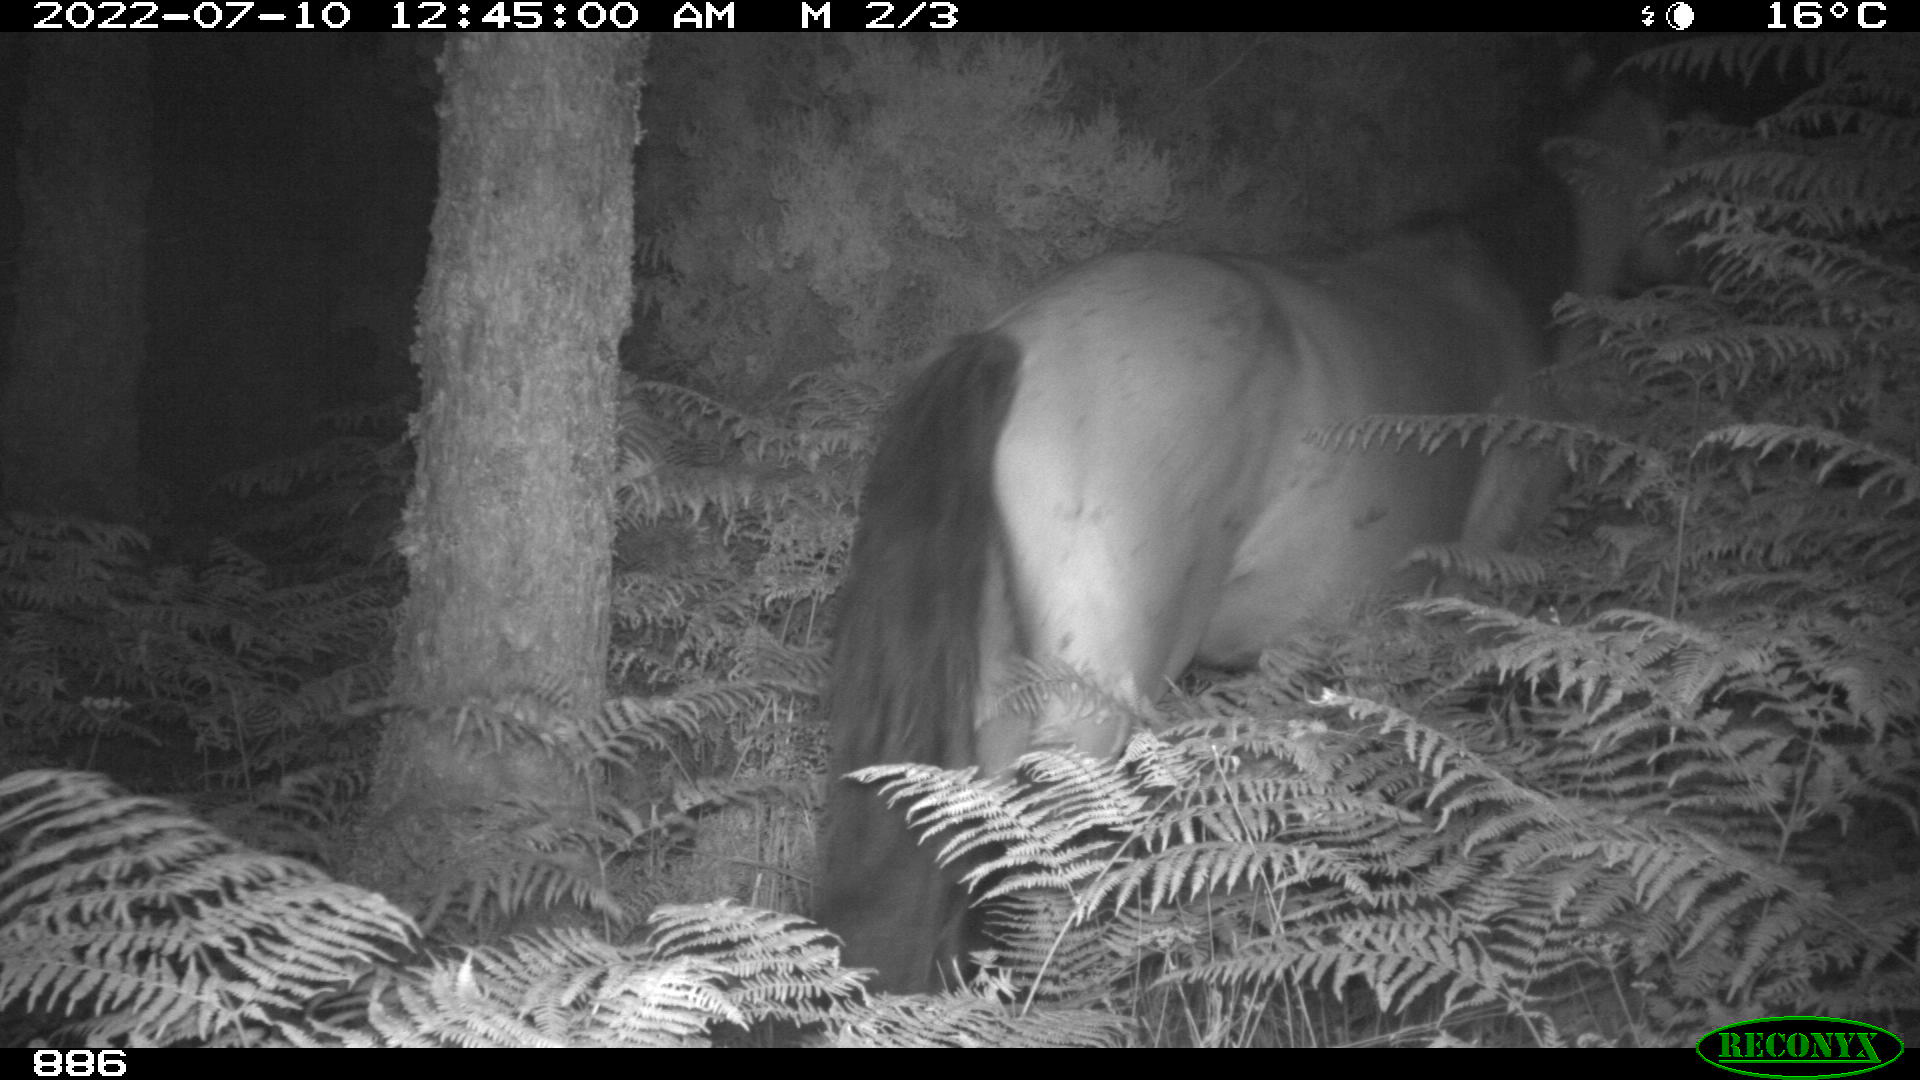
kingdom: Animalia
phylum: Chordata
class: Mammalia
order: Perissodactyla
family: Equidae
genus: Equus
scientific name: Equus caballus
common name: Horse
